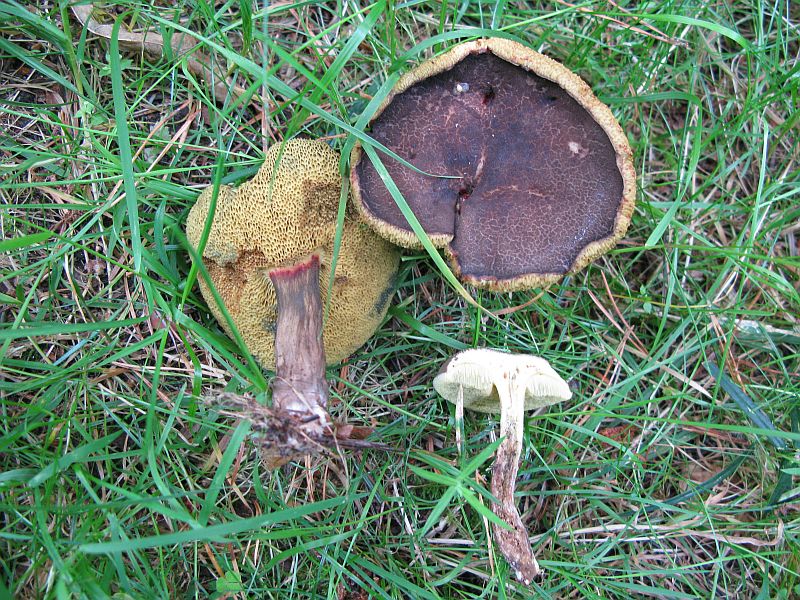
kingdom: Fungi
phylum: Basidiomycota
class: Agaricomycetes
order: Boletales
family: Boletaceae
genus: Xerocomellus
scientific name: Xerocomellus chrysenteron
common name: rødsprukken rørhat
